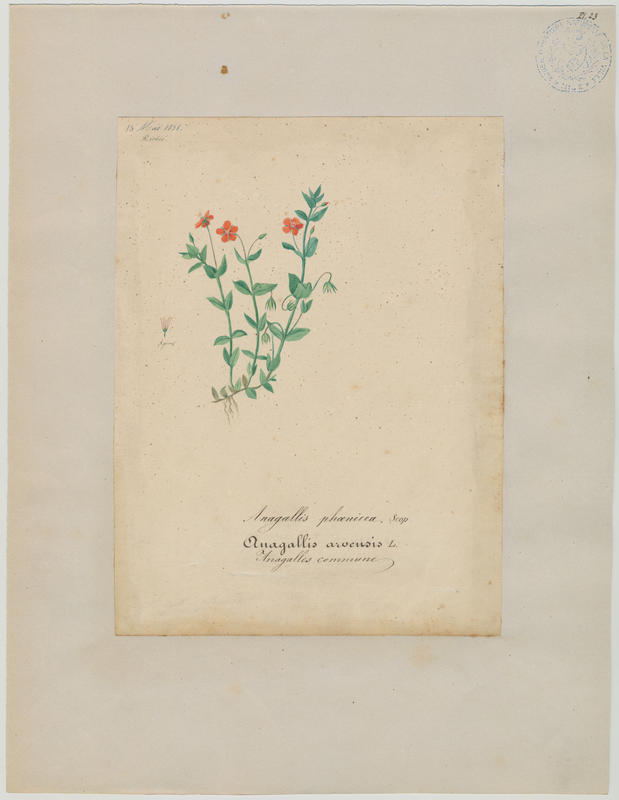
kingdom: Plantae
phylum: Tracheophyta
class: Magnoliopsida
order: Ericales
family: Primulaceae
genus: Lysimachia
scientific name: Lysimachia arvensis
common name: Scarlet pimpernel
